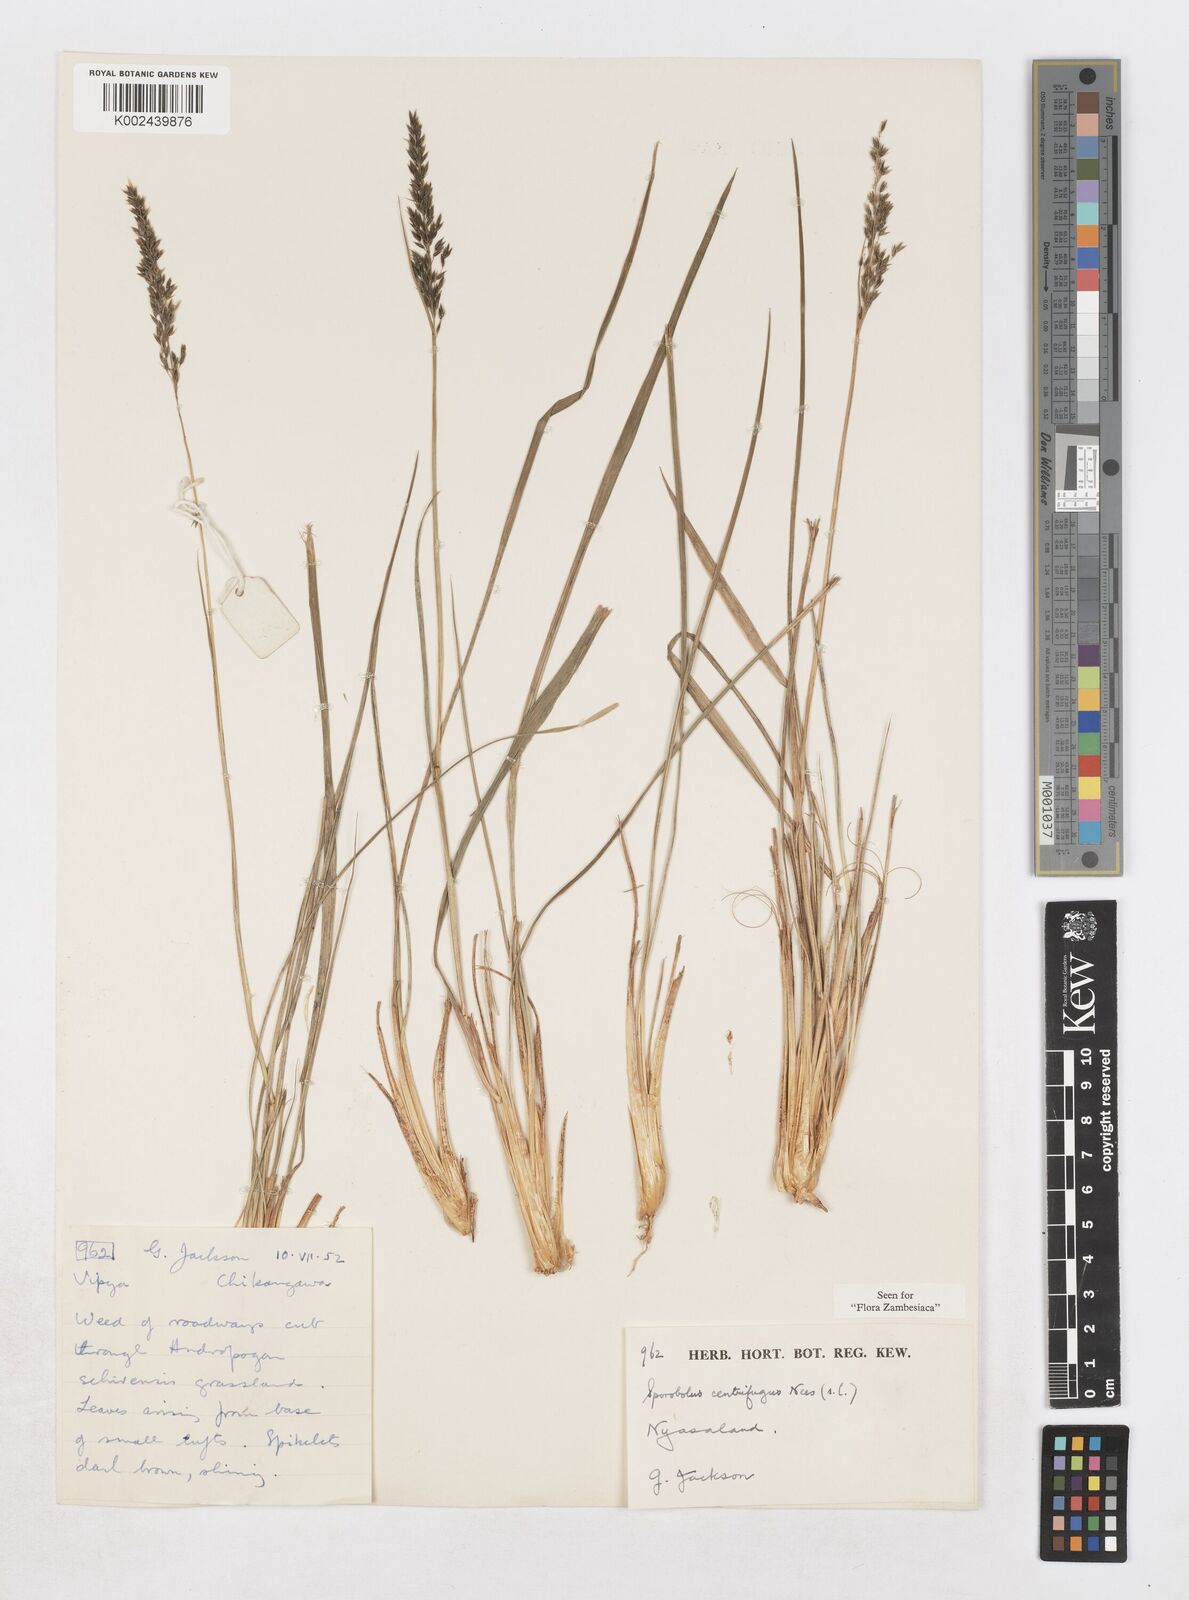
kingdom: Plantae
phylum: Tracheophyta
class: Liliopsida
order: Poales
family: Poaceae
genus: Sporobolus
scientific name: Sporobolus centrifugus
